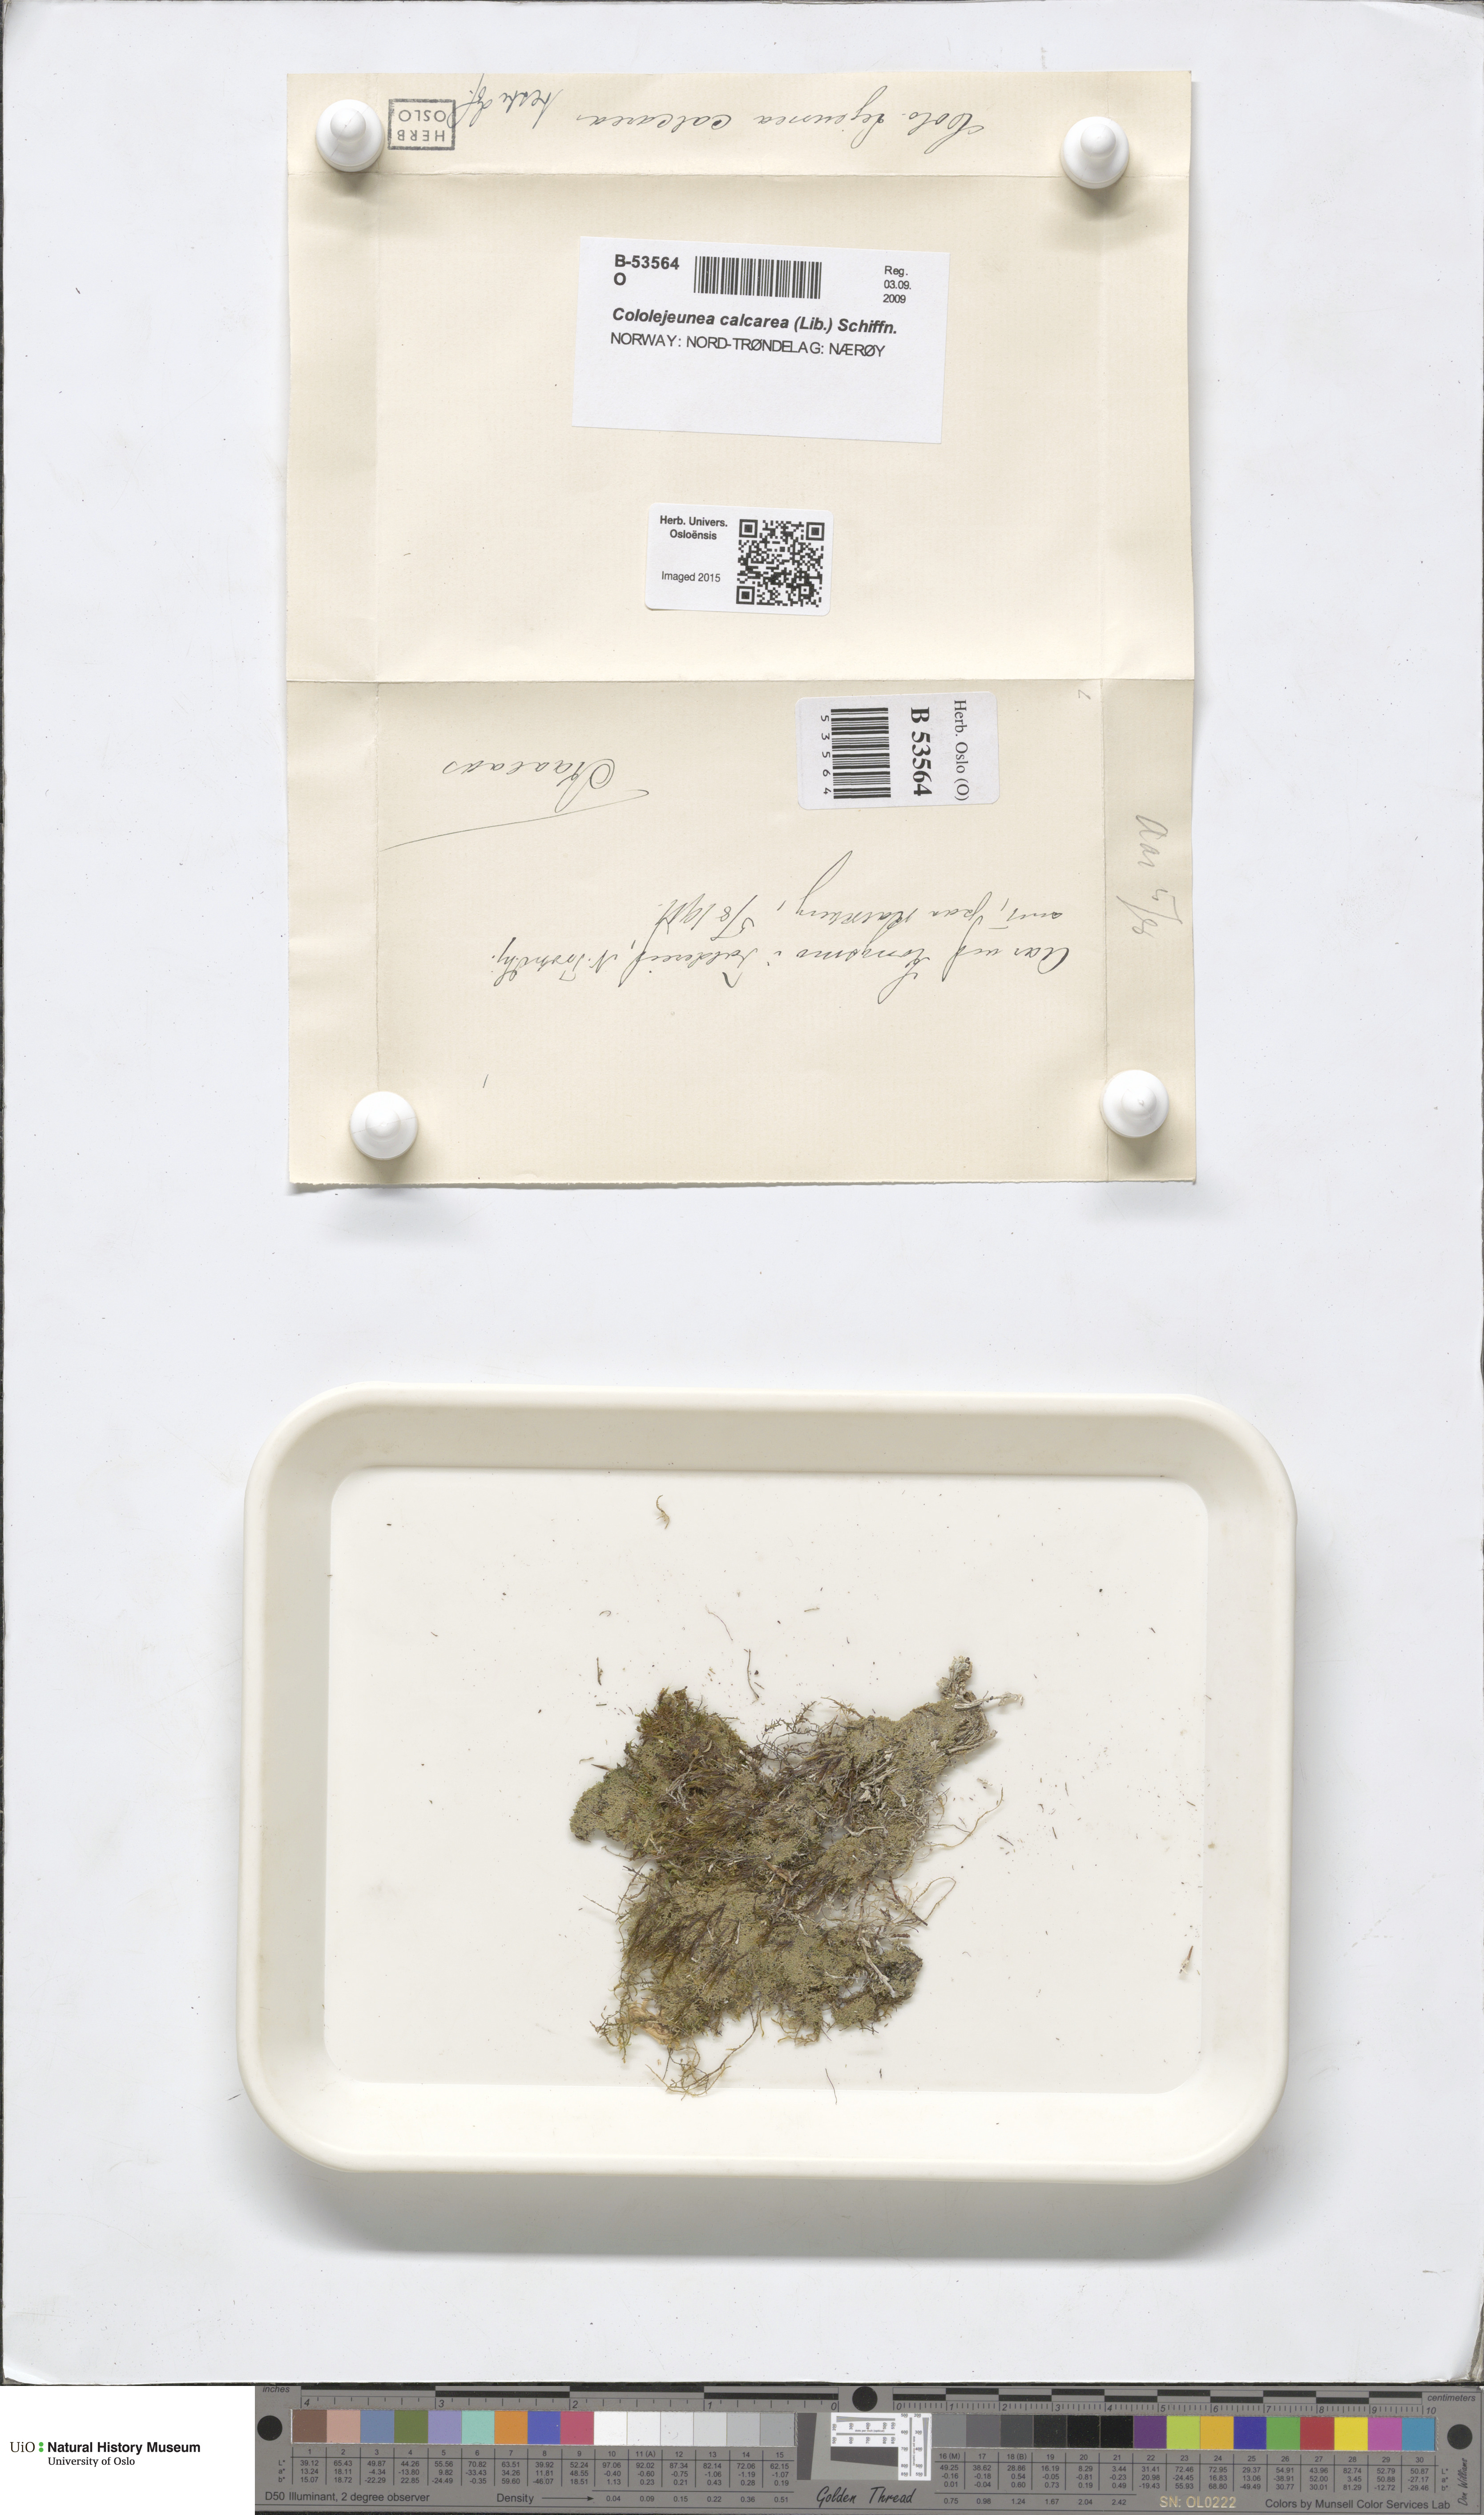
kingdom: Plantae
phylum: Marchantiophyta
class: Jungermanniopsida
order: Porellales
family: Lejeuneaceae
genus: Cololejeunea
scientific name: Cololejeunea calcarea
